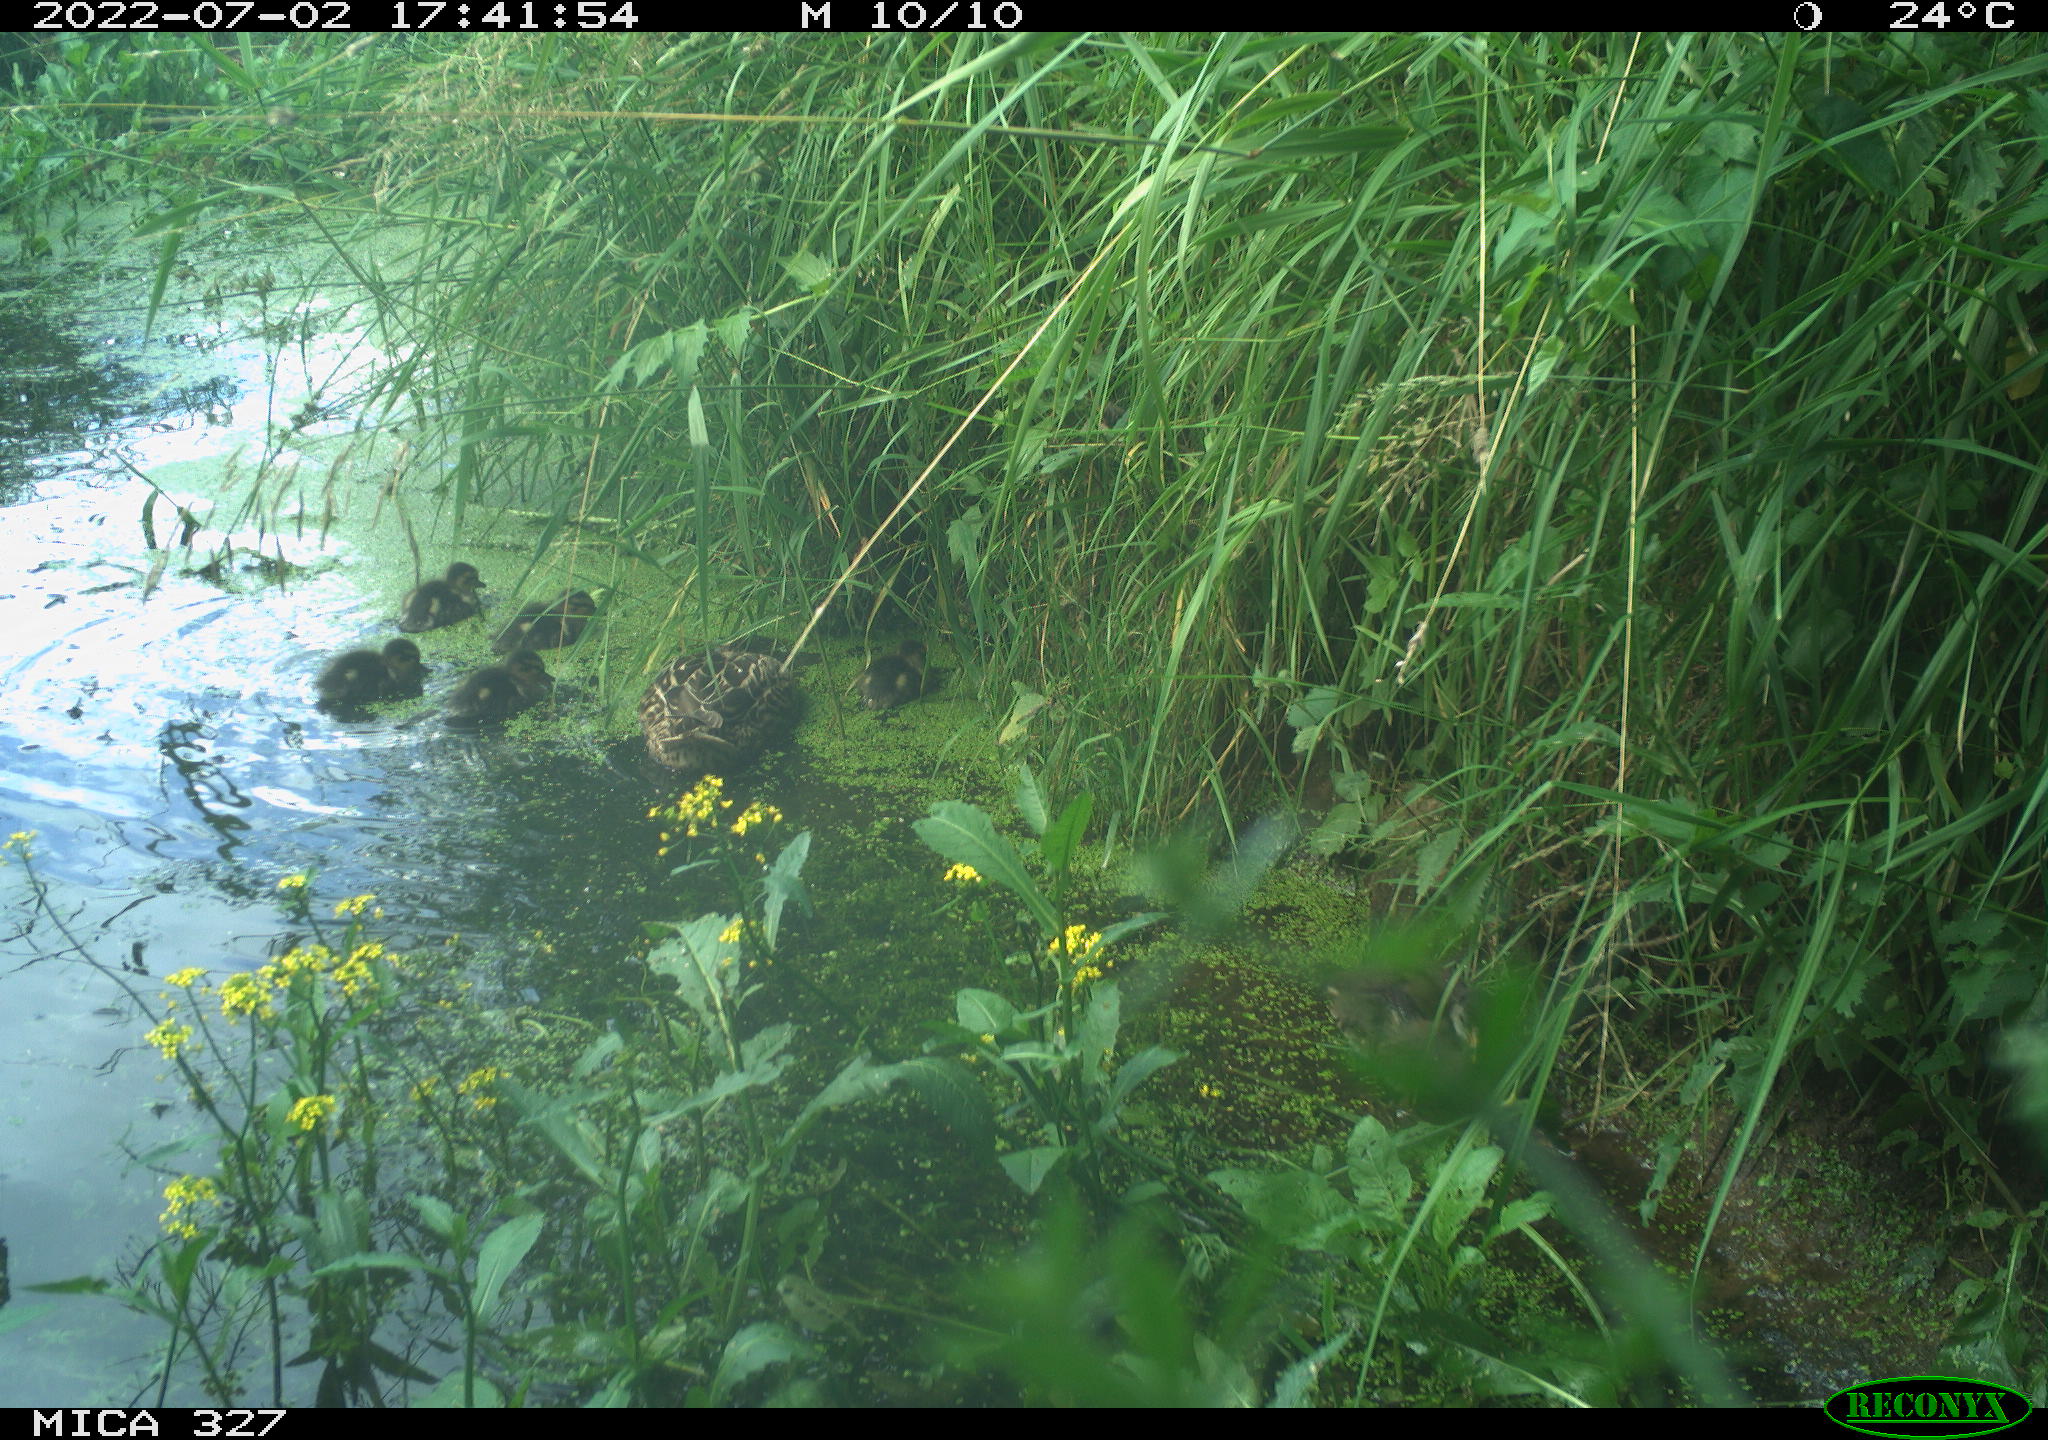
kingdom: Animalia
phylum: Chordata
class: Aves
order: Anseriformes
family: Anatidae
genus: Anas
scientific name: Anas platyrhynchos
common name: Mallard
